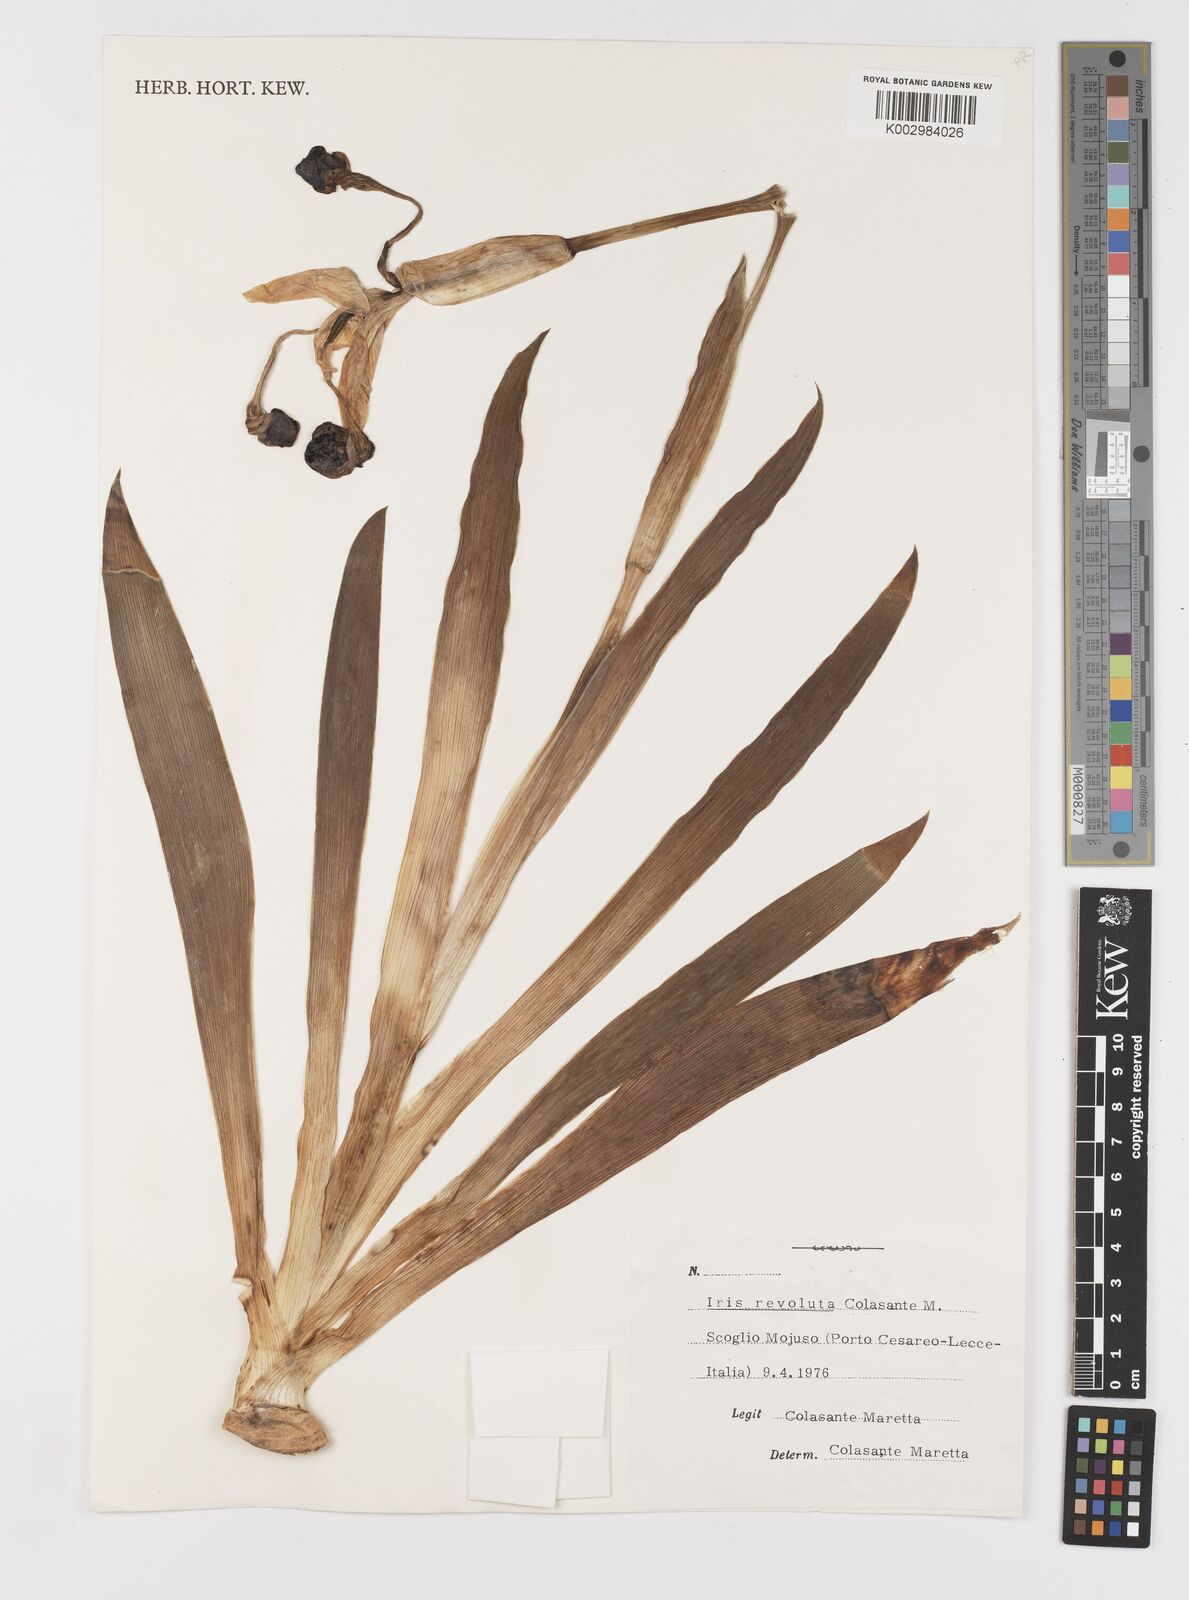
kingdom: Plantae
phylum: Tracheophyta
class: Liliopsida
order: Asparagales
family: Iridaceae
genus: Iris
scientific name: Iris revoluta
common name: Salento iris
